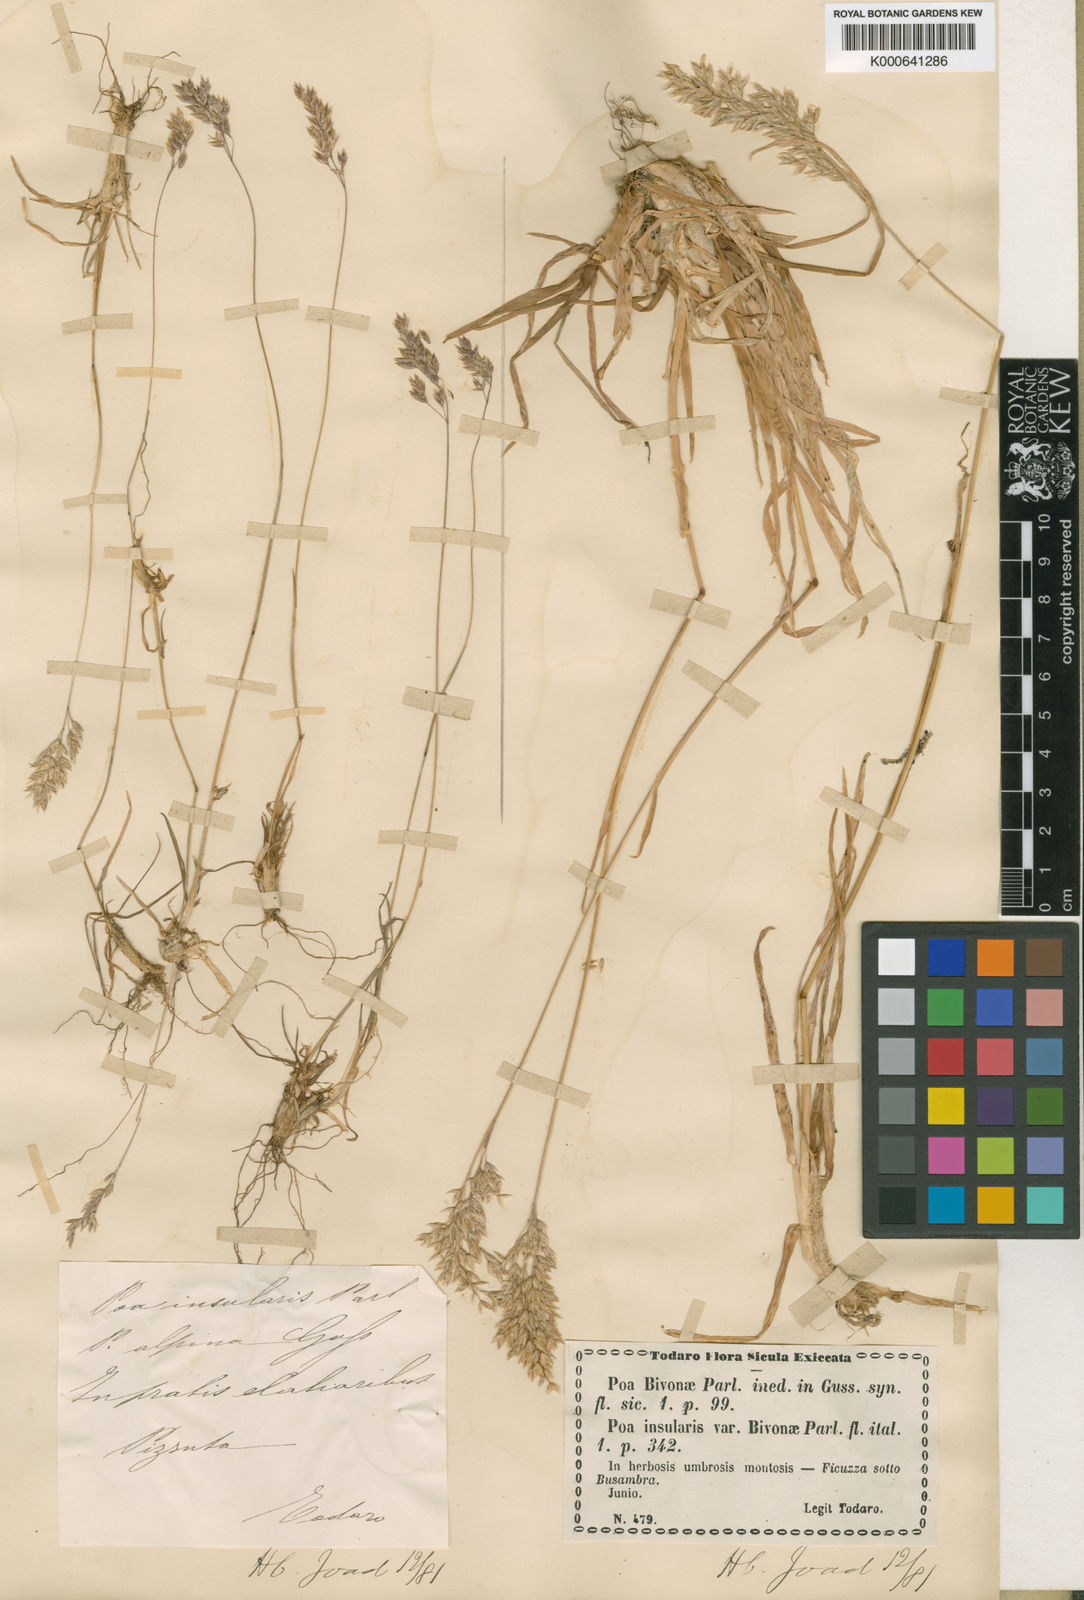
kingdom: Plantae
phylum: Tracheophyta
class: Liliopsida
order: Poales
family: Poaceae
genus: Poa
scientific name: Poa alpina
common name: Alpine bluegrass
